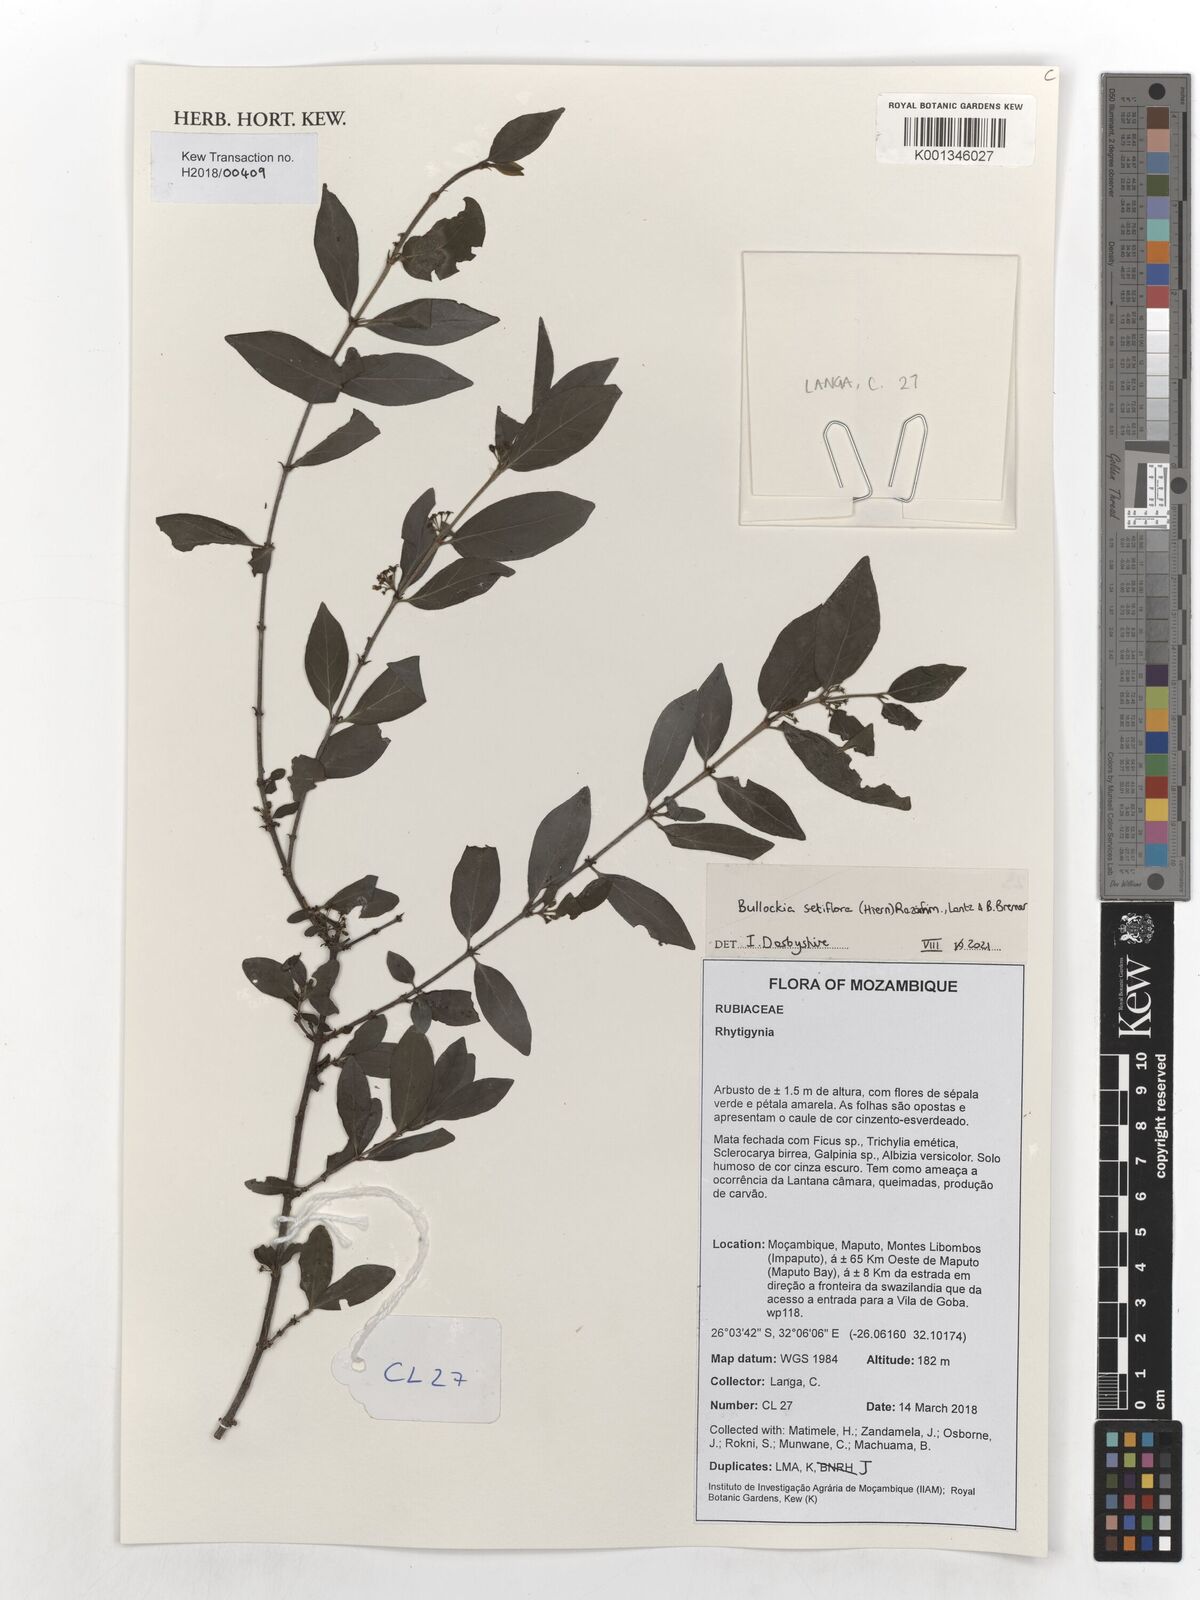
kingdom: Plantae
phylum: Tracheophyta
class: Magnoliopsida
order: Gentianales
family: Rubiaceae
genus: Bullockia
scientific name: Bullockia setiflora
